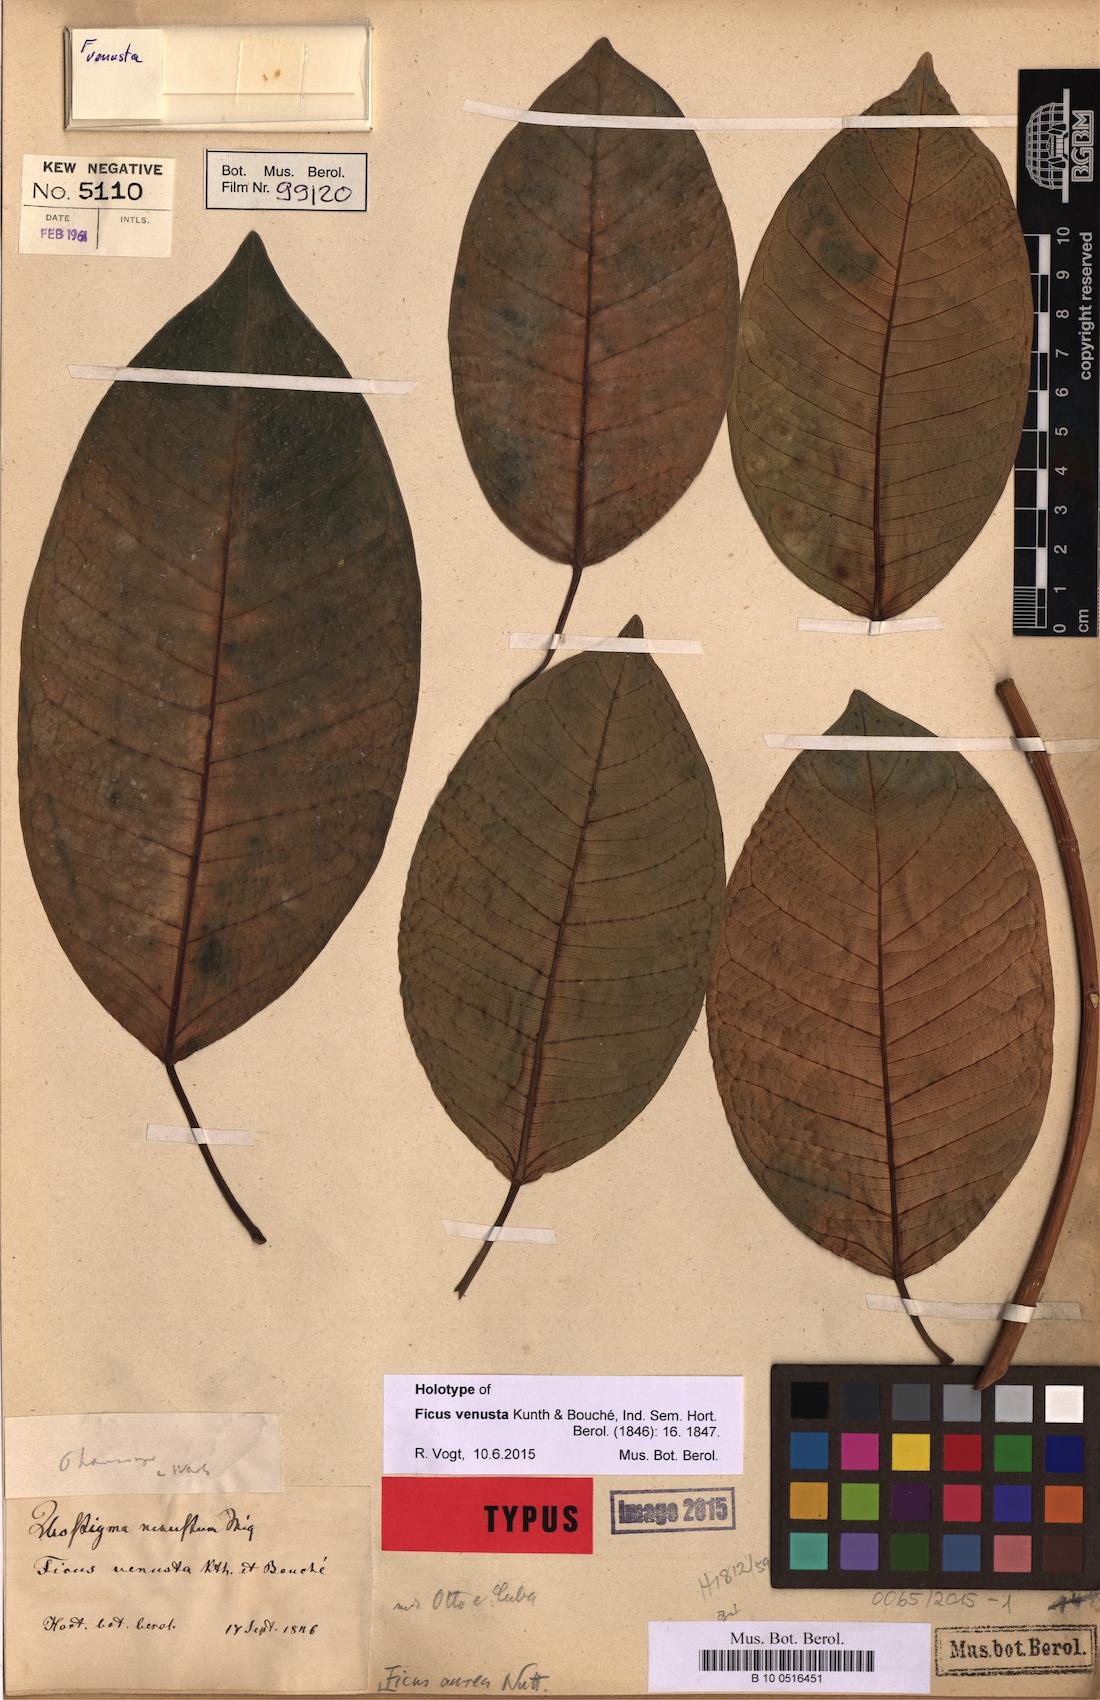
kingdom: Plantae
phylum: Tracheophyta
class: Magnoliopsida
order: Rosales
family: Moraceae
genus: Ficus
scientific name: Ficus aurea
